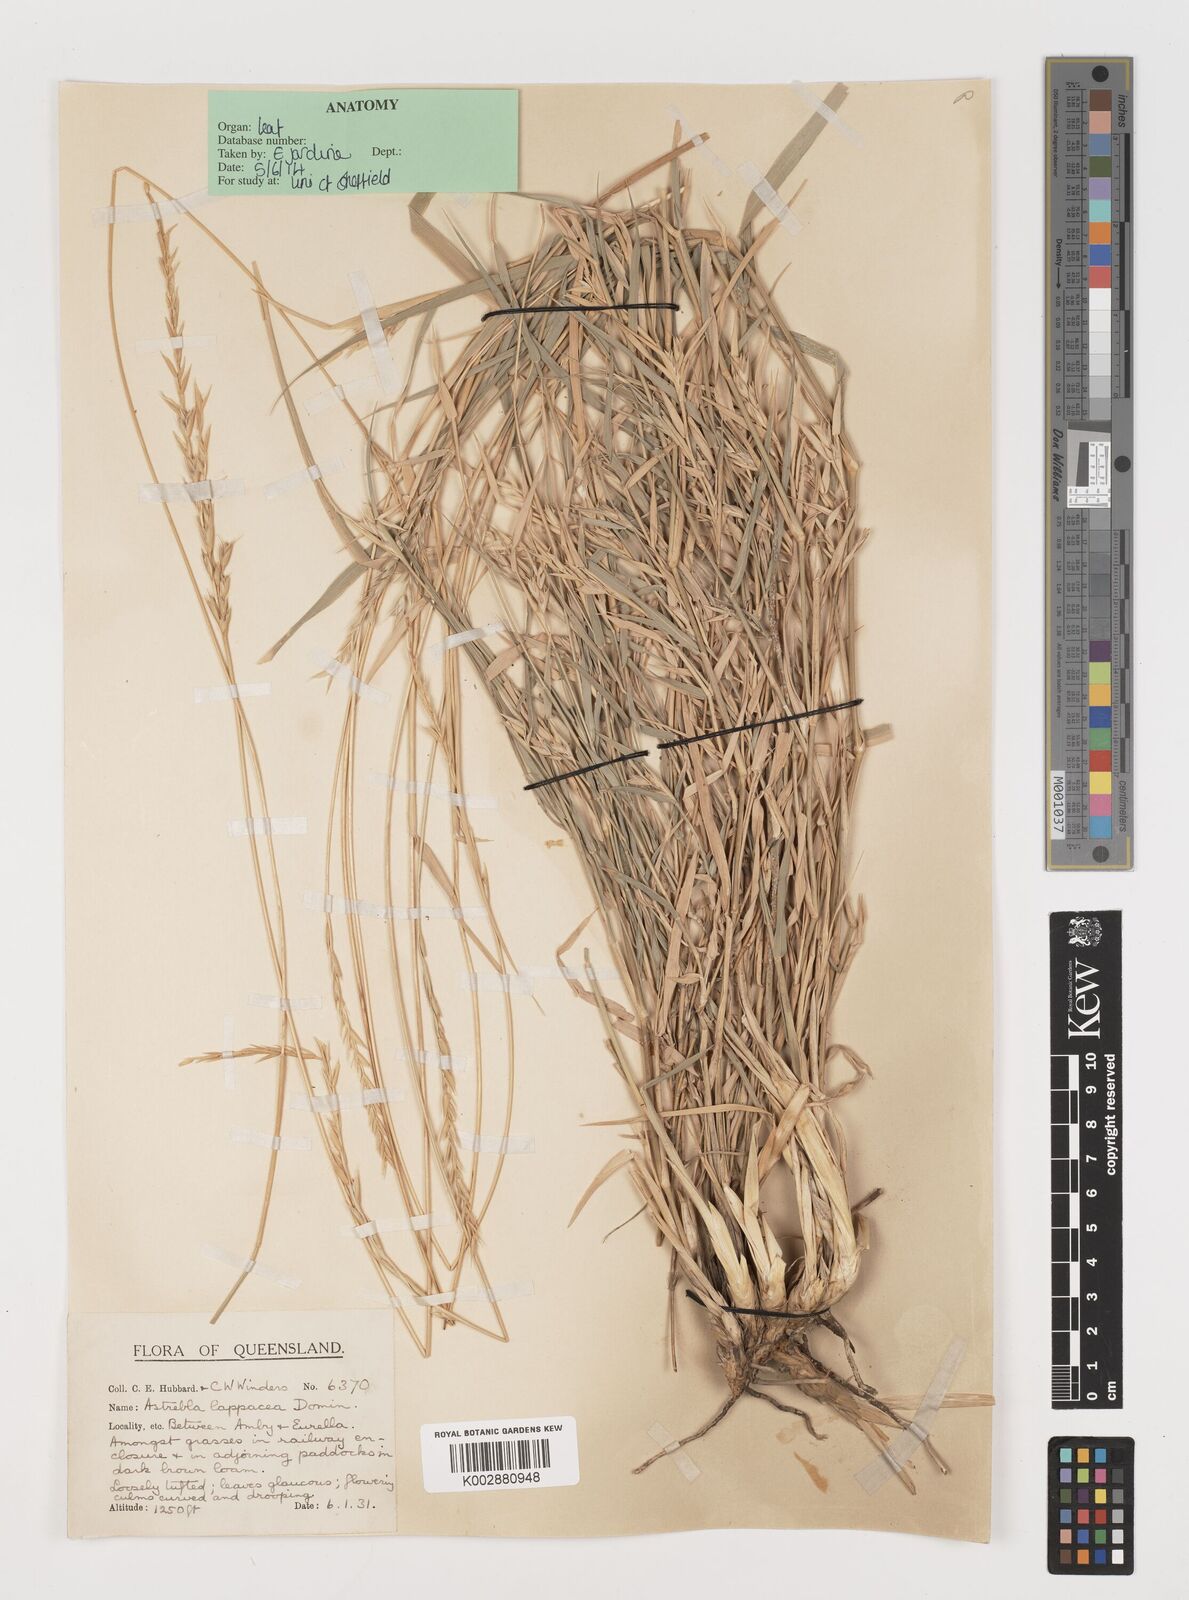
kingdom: Plantae
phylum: Tracheophyta
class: Liliopsida
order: Poales
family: Poaceae
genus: Astrebla
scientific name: Astrebla lappacea
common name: Curly mitchell grass
